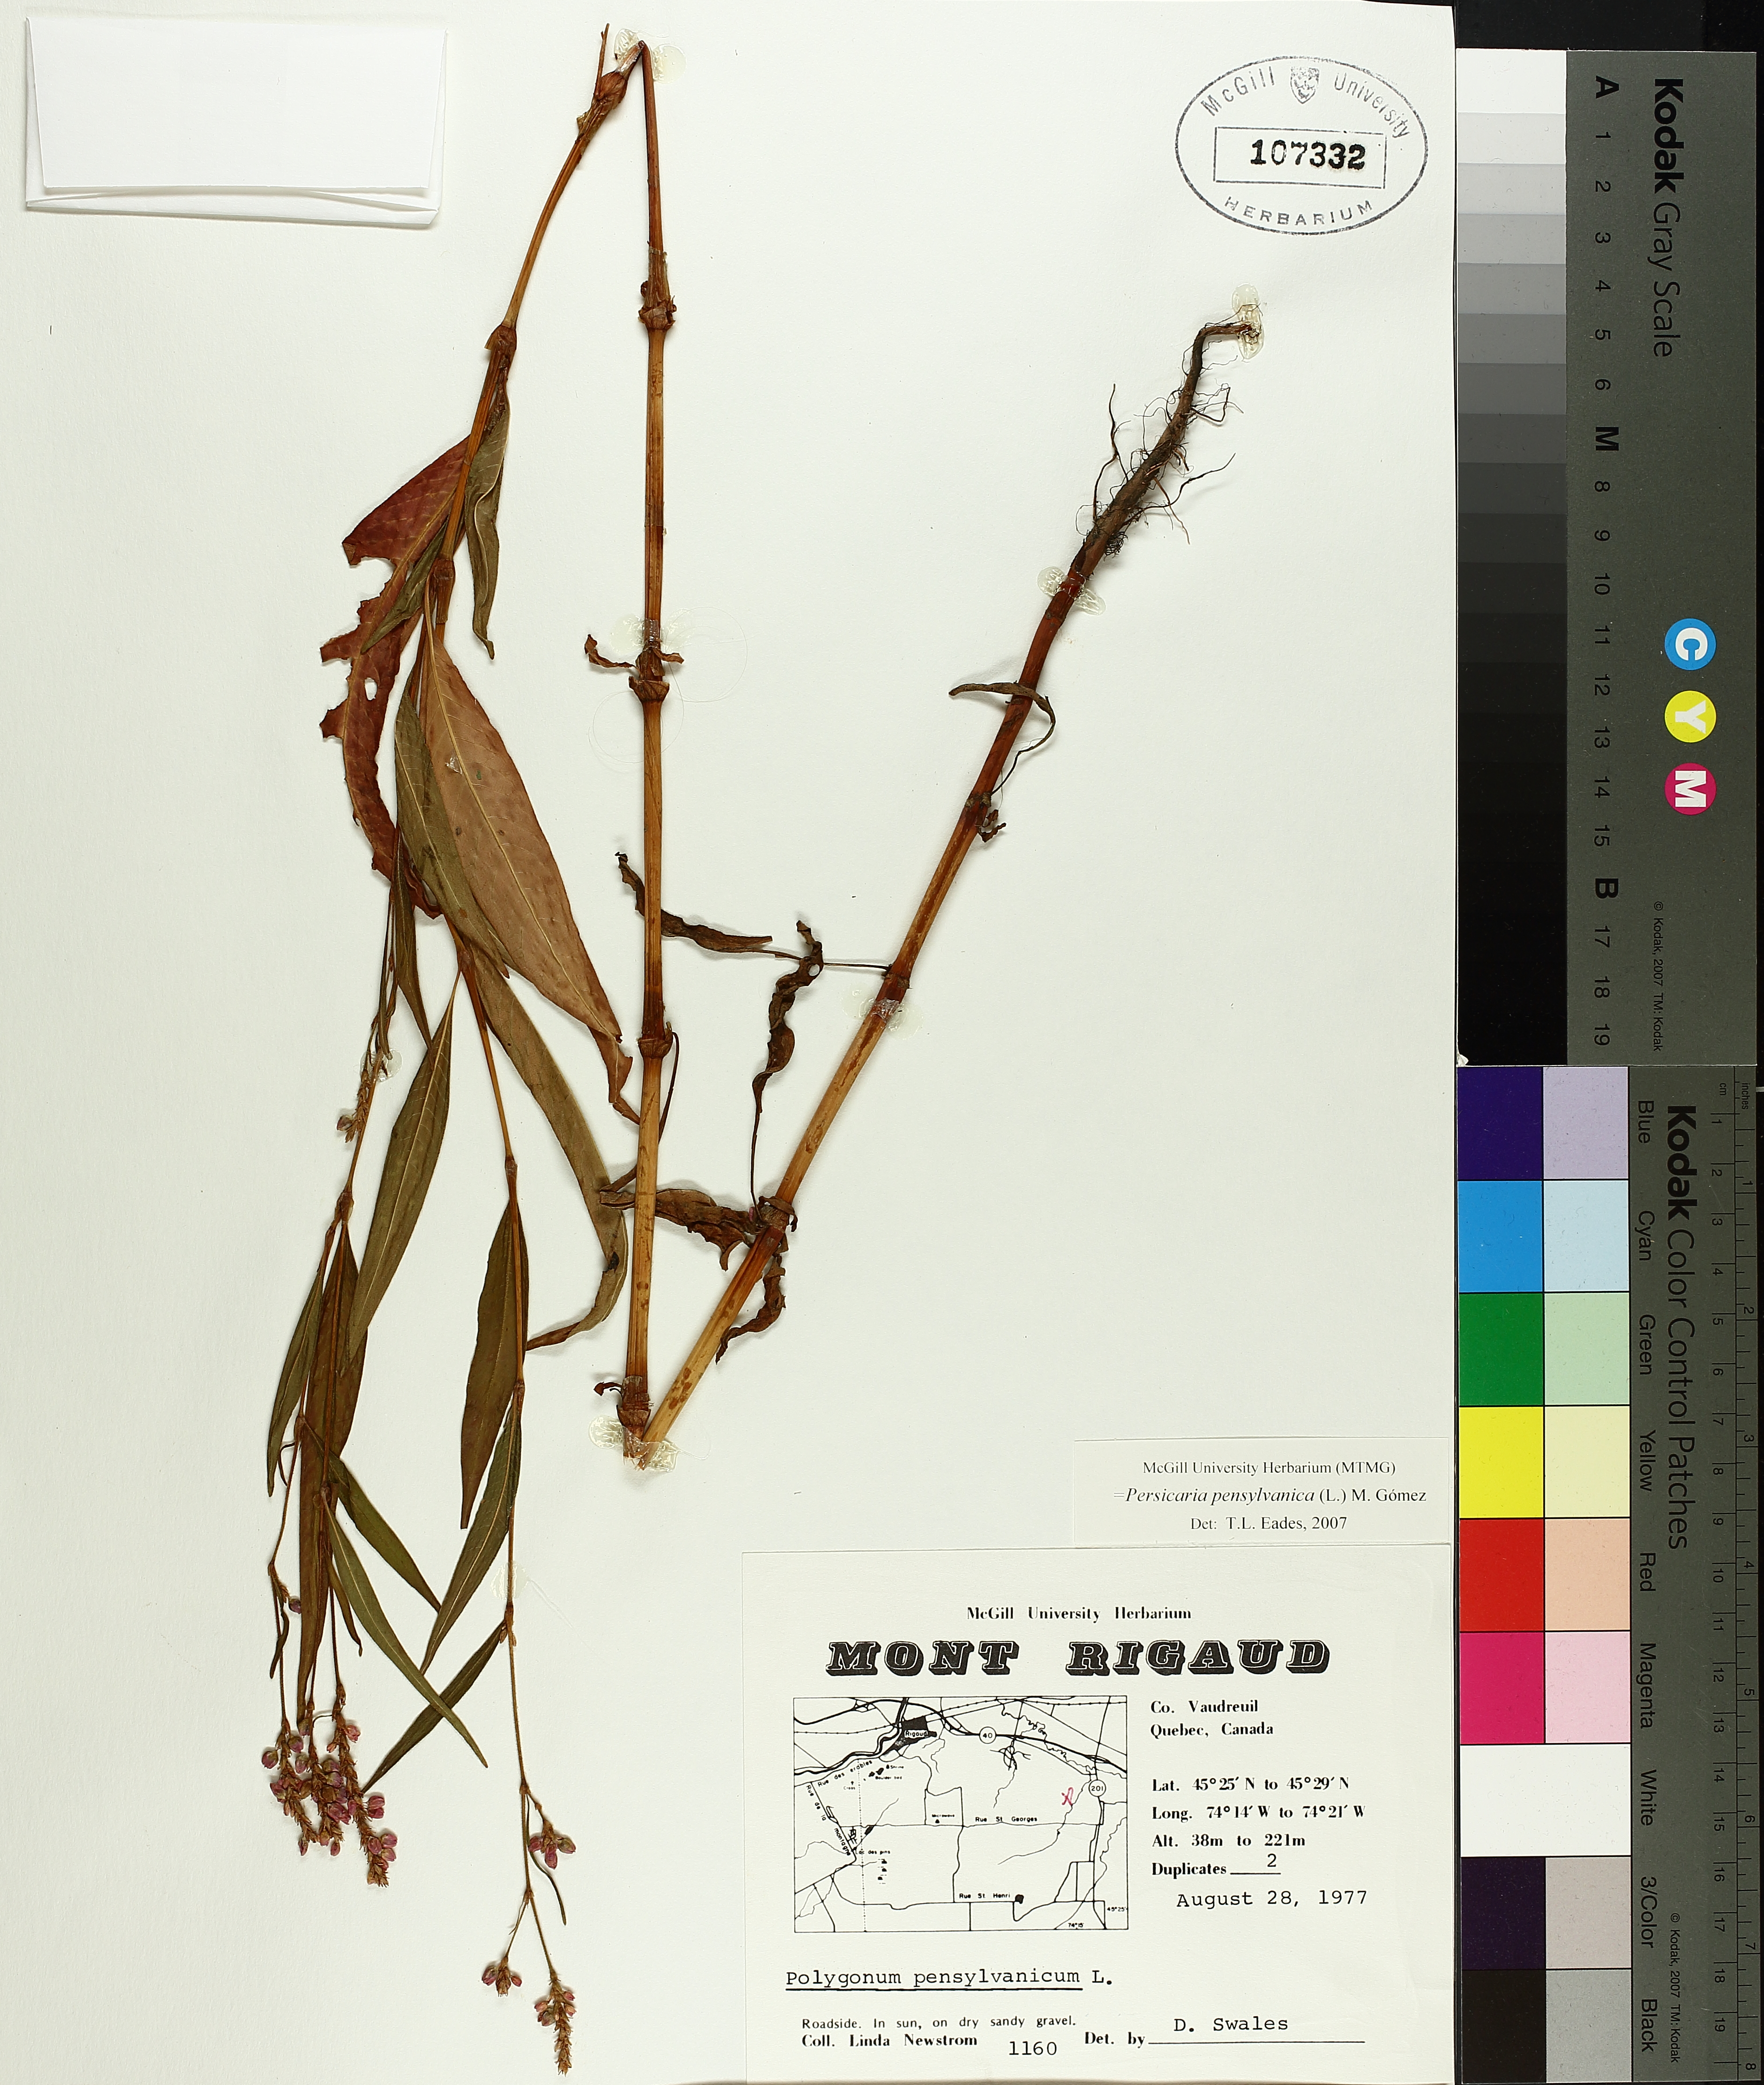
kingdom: Plantae
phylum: Tracheophyta
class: Magnoliopsida
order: Caryophyllales
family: Polygonaceae
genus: Persicaria
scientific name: Persicaria bungeana
